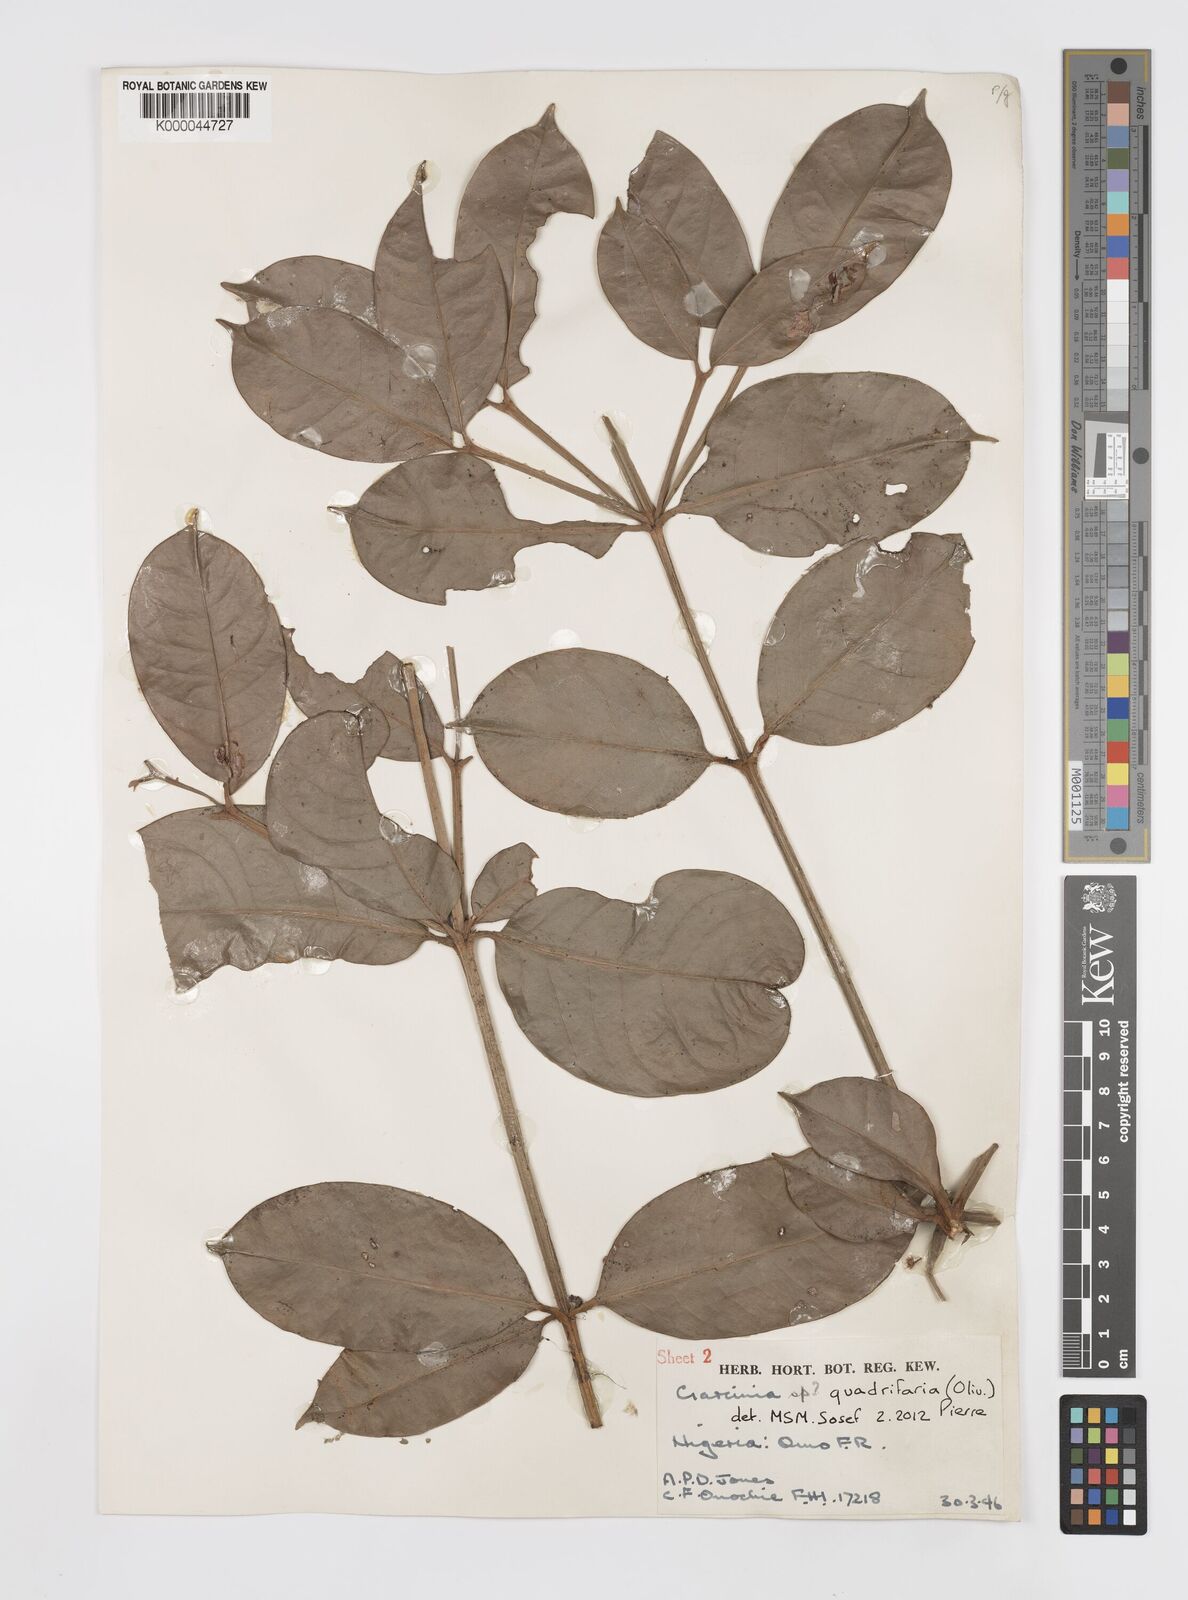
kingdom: Plantae
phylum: Tracheophyta
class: Magnoliopsida
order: Malpighiales
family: Clusiaceae
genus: Garcinia
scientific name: Garcinia gnetoides
